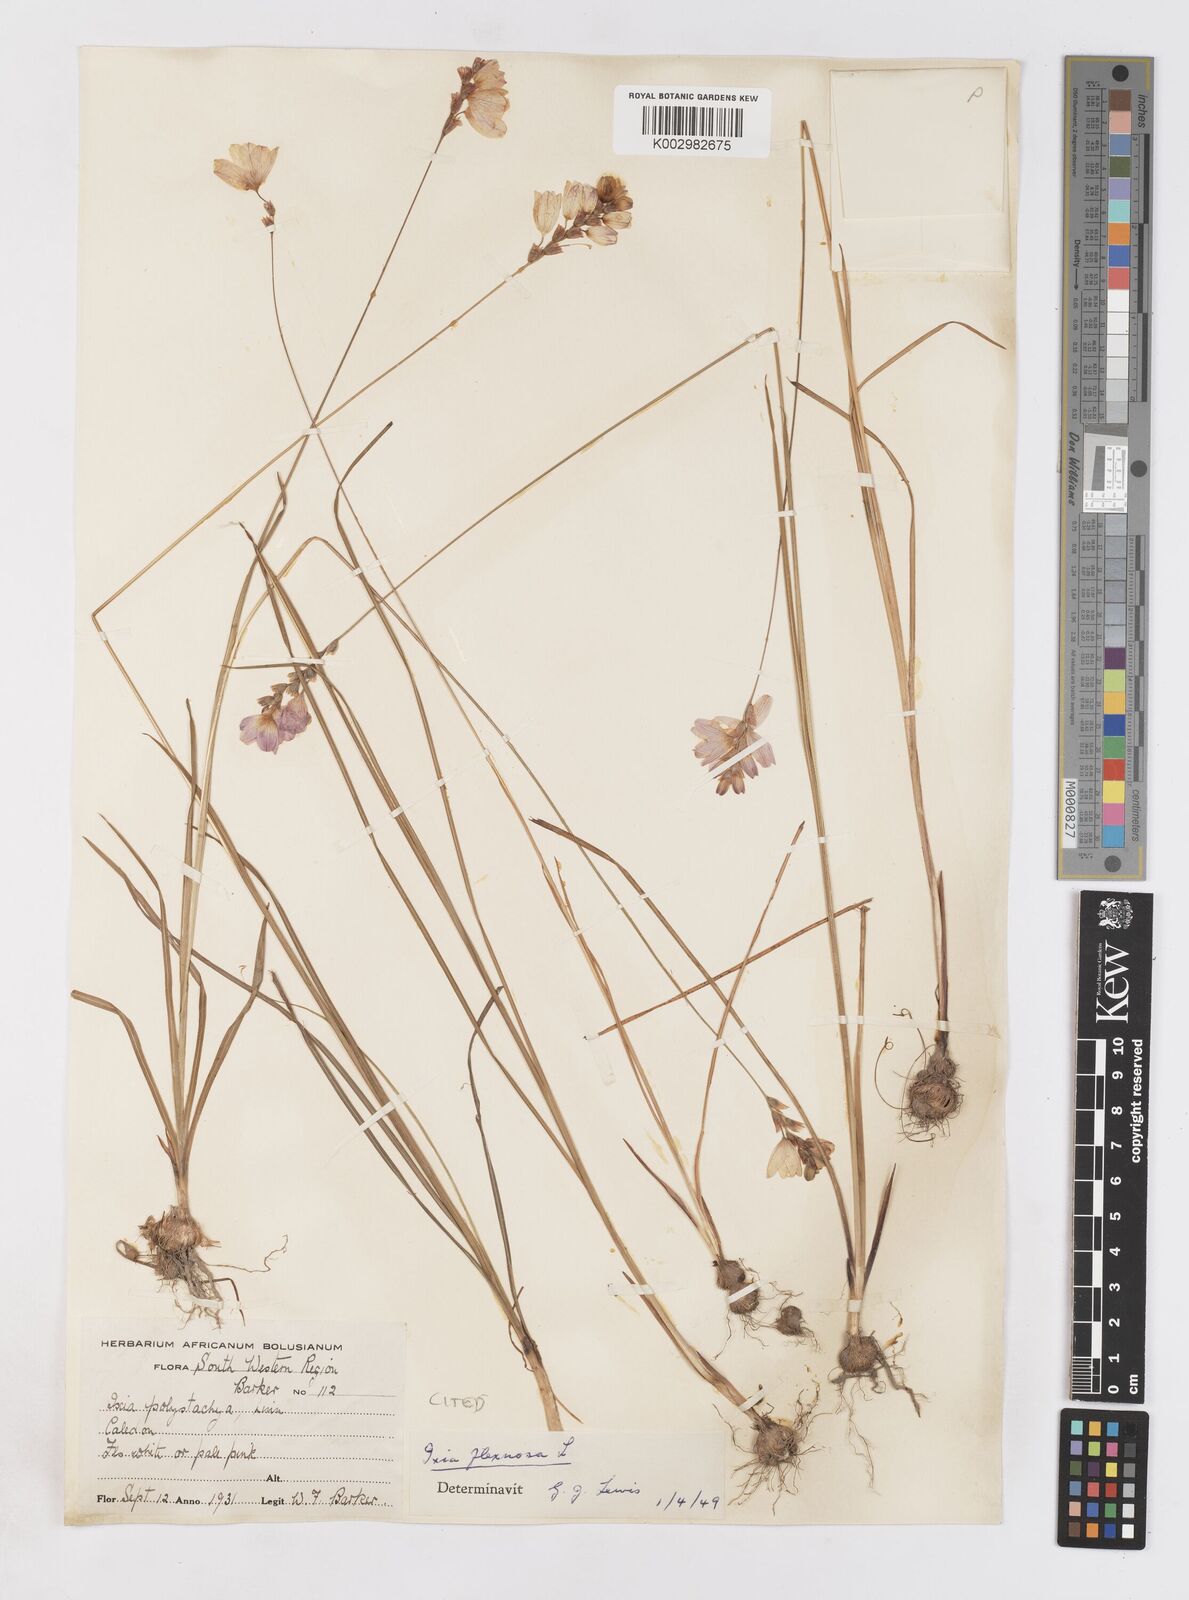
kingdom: Plantae
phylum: Tracheophyta
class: Liliopsida
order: Asparagales
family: Iridaceae
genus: Ixia
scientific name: Ixia flexuosa
